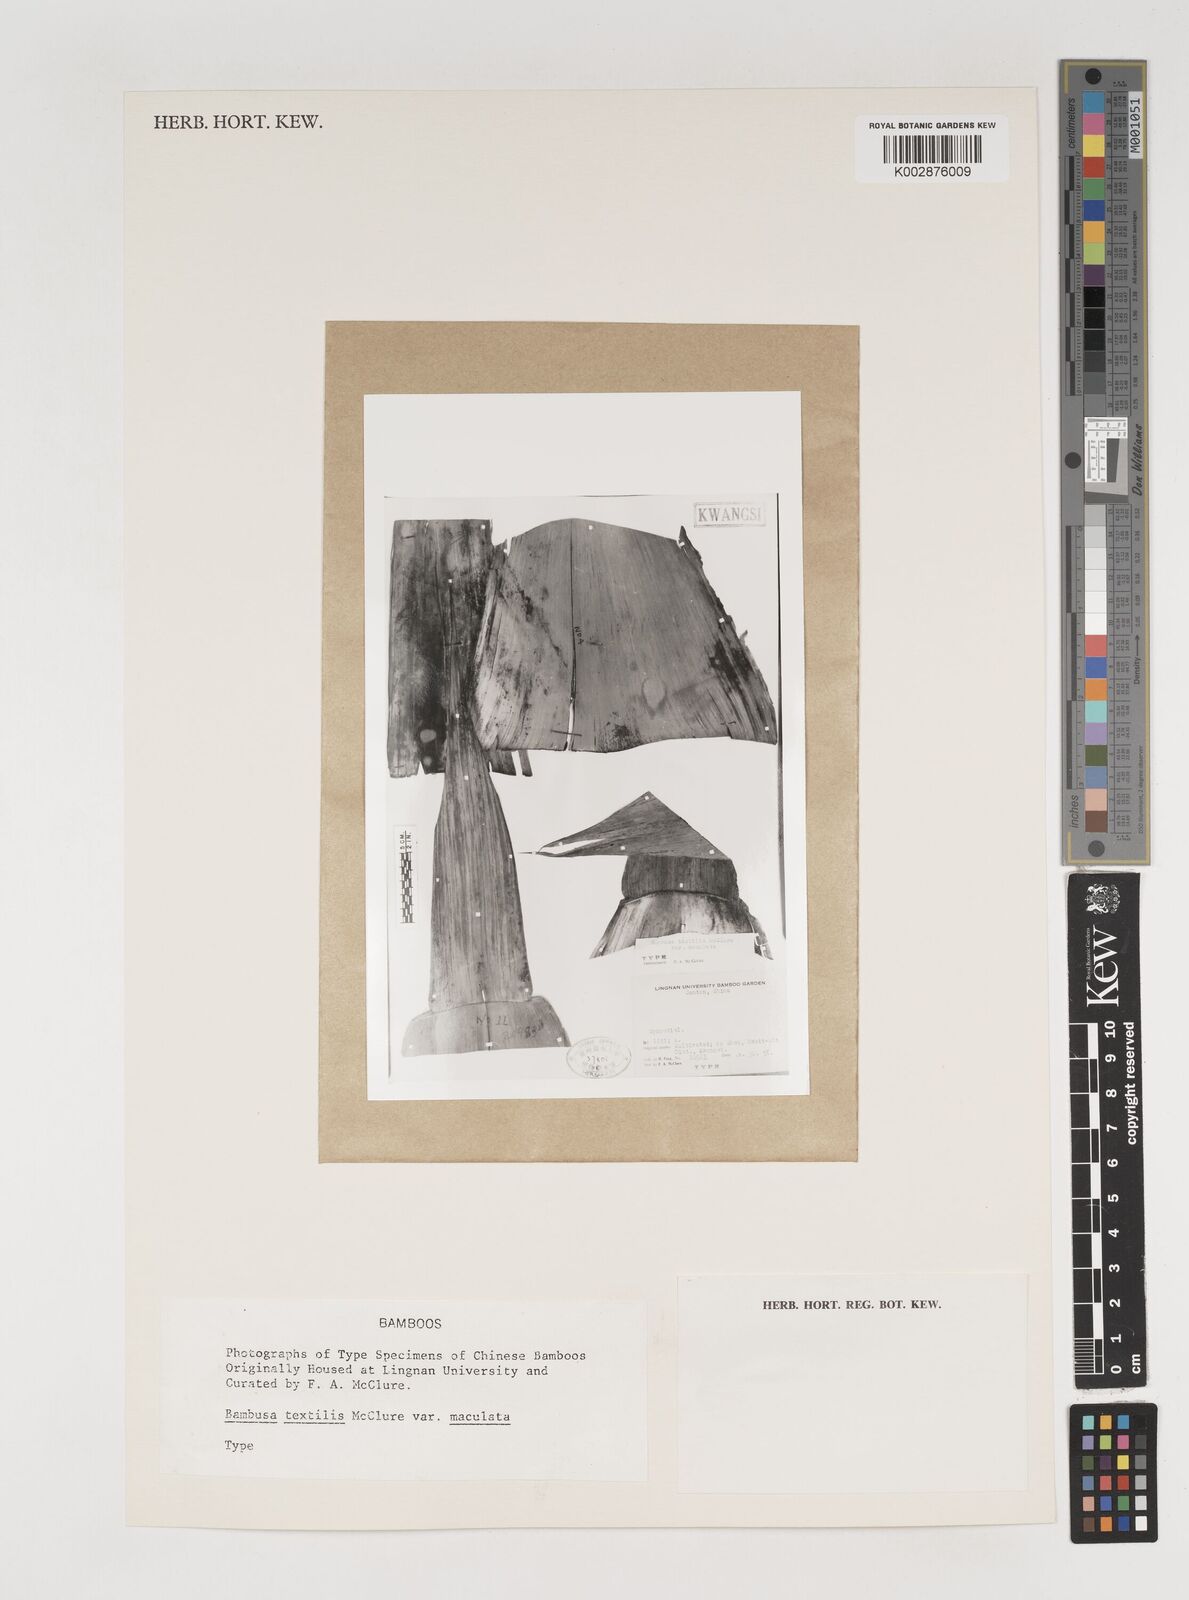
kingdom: Plantae
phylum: Tracheophyta
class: Liliopsida
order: Poales
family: Poaceae
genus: Bambusa
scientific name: Bambusa albolineata
